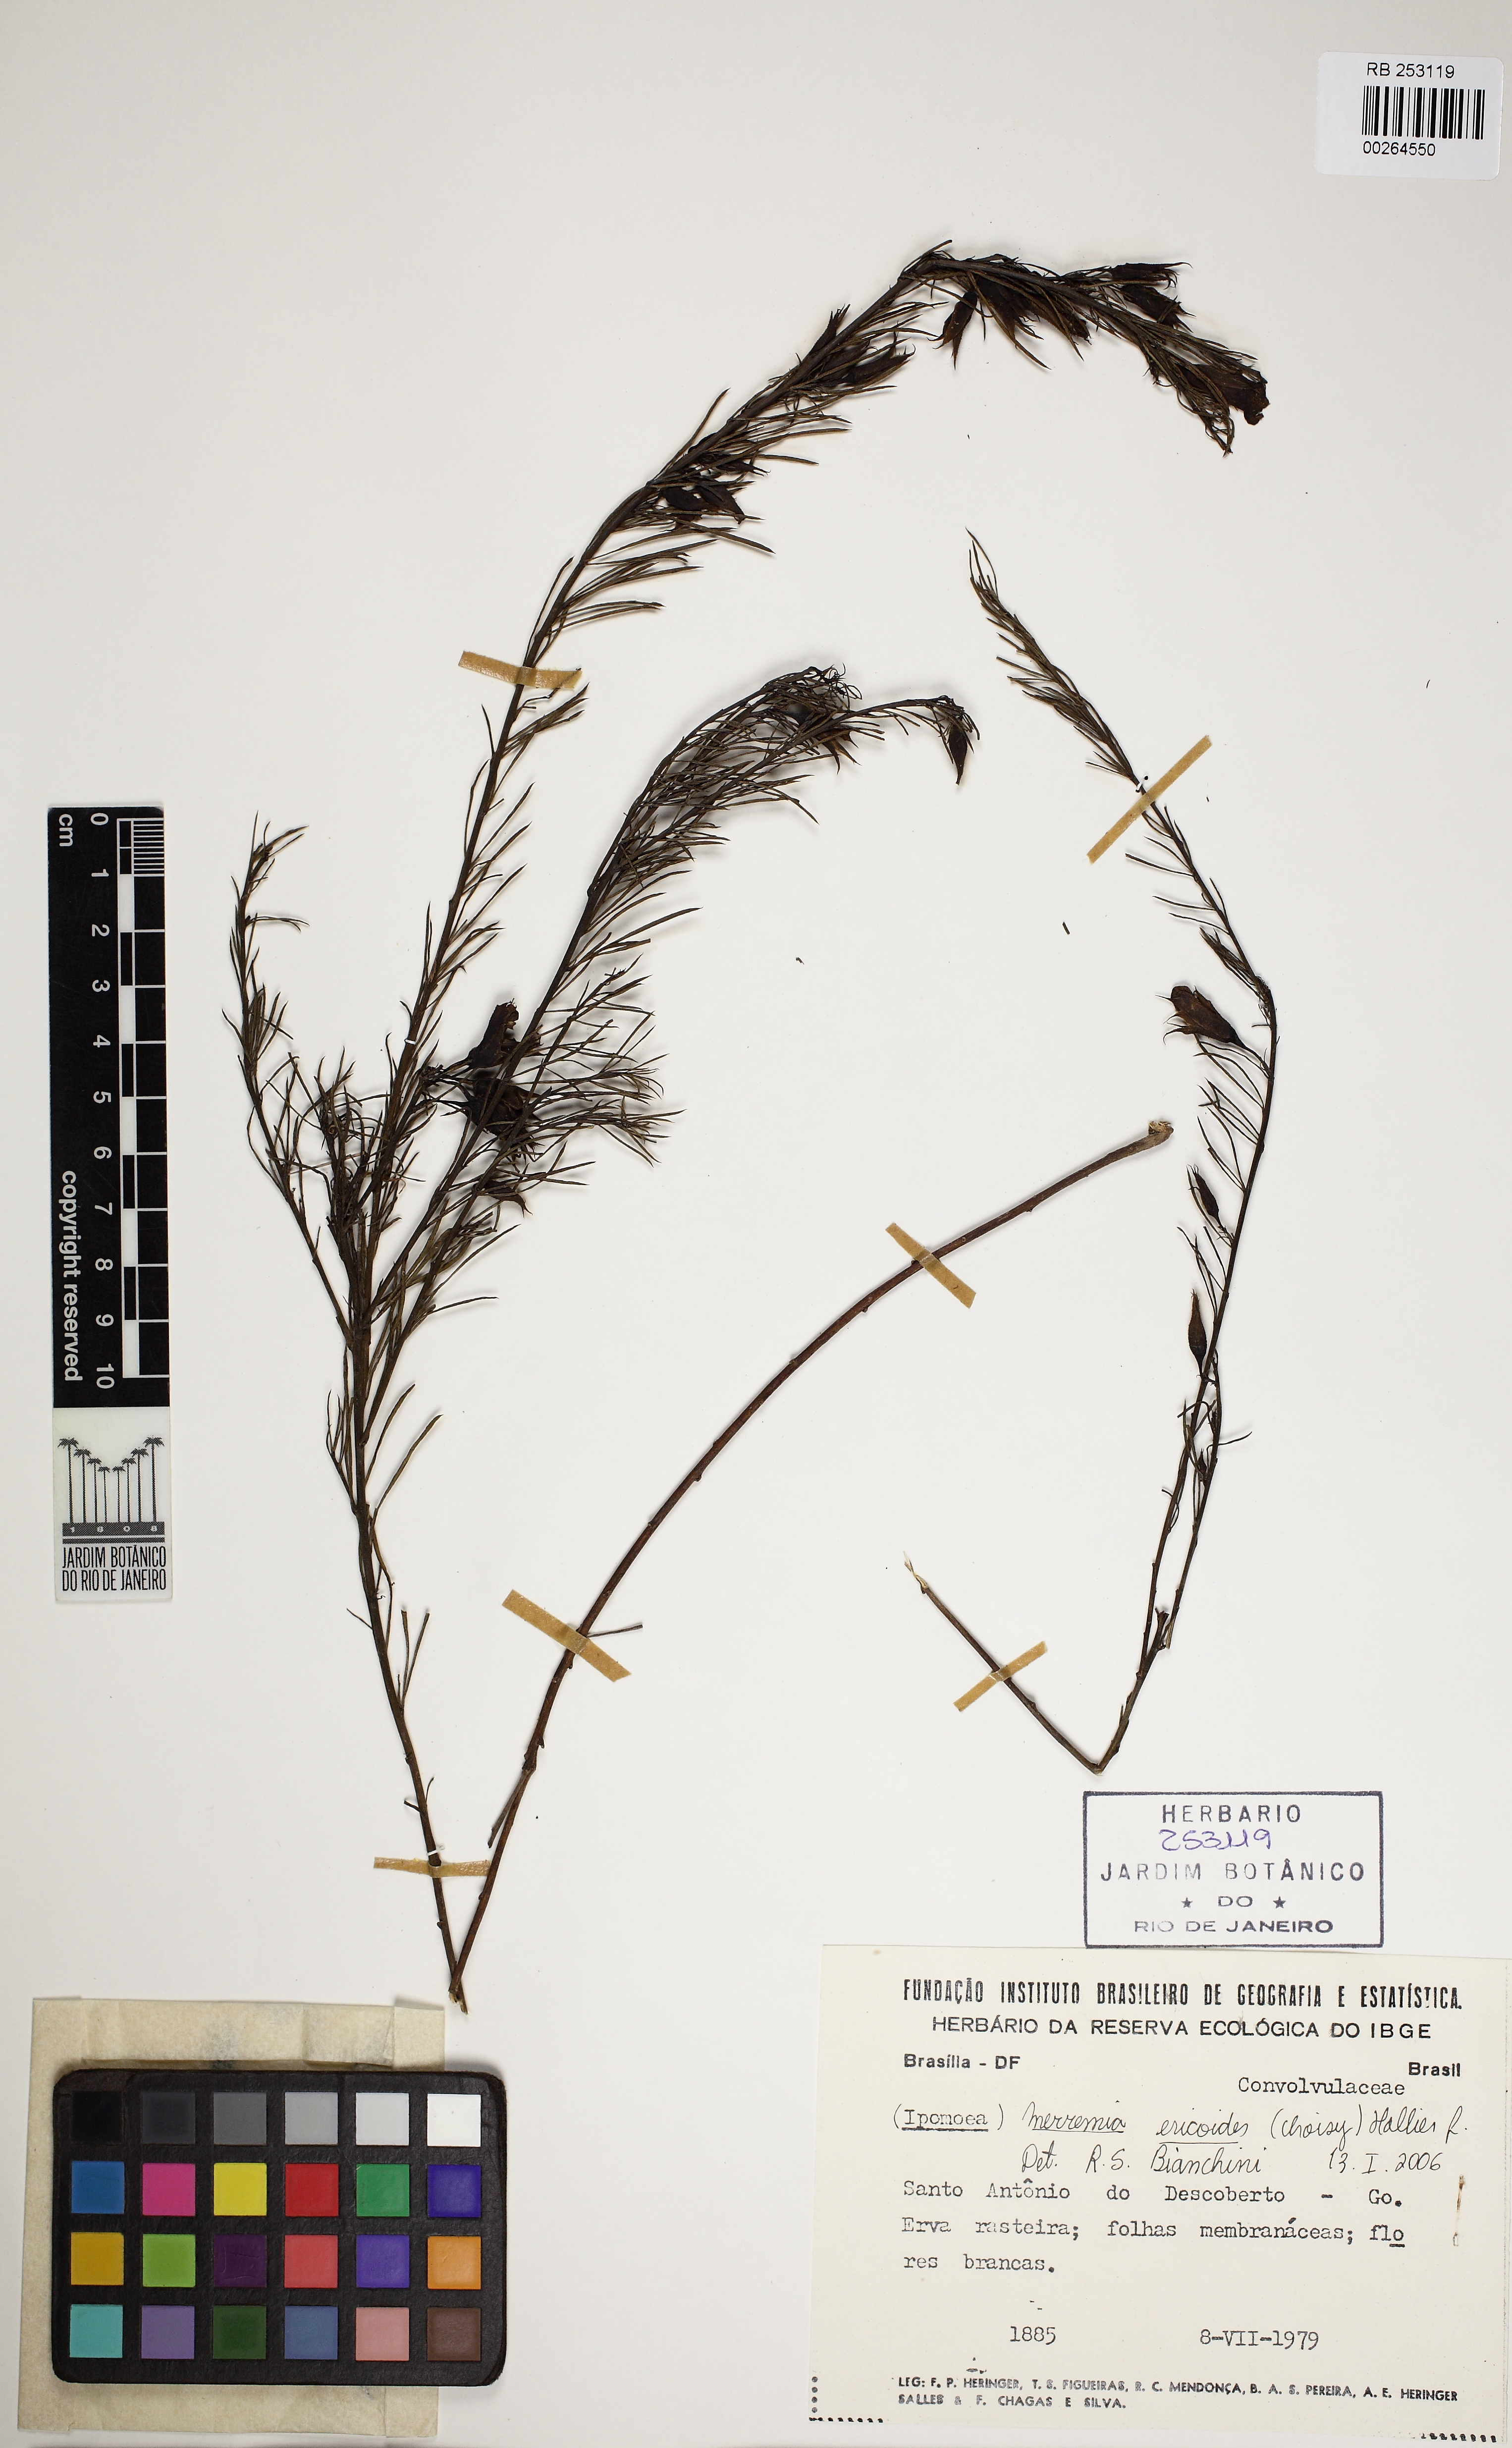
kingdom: Plantae
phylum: Tracheophyta
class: Magnoliopsida
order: Solanales
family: Convolvulaceae
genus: Distimake
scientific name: Distimake ericoides
